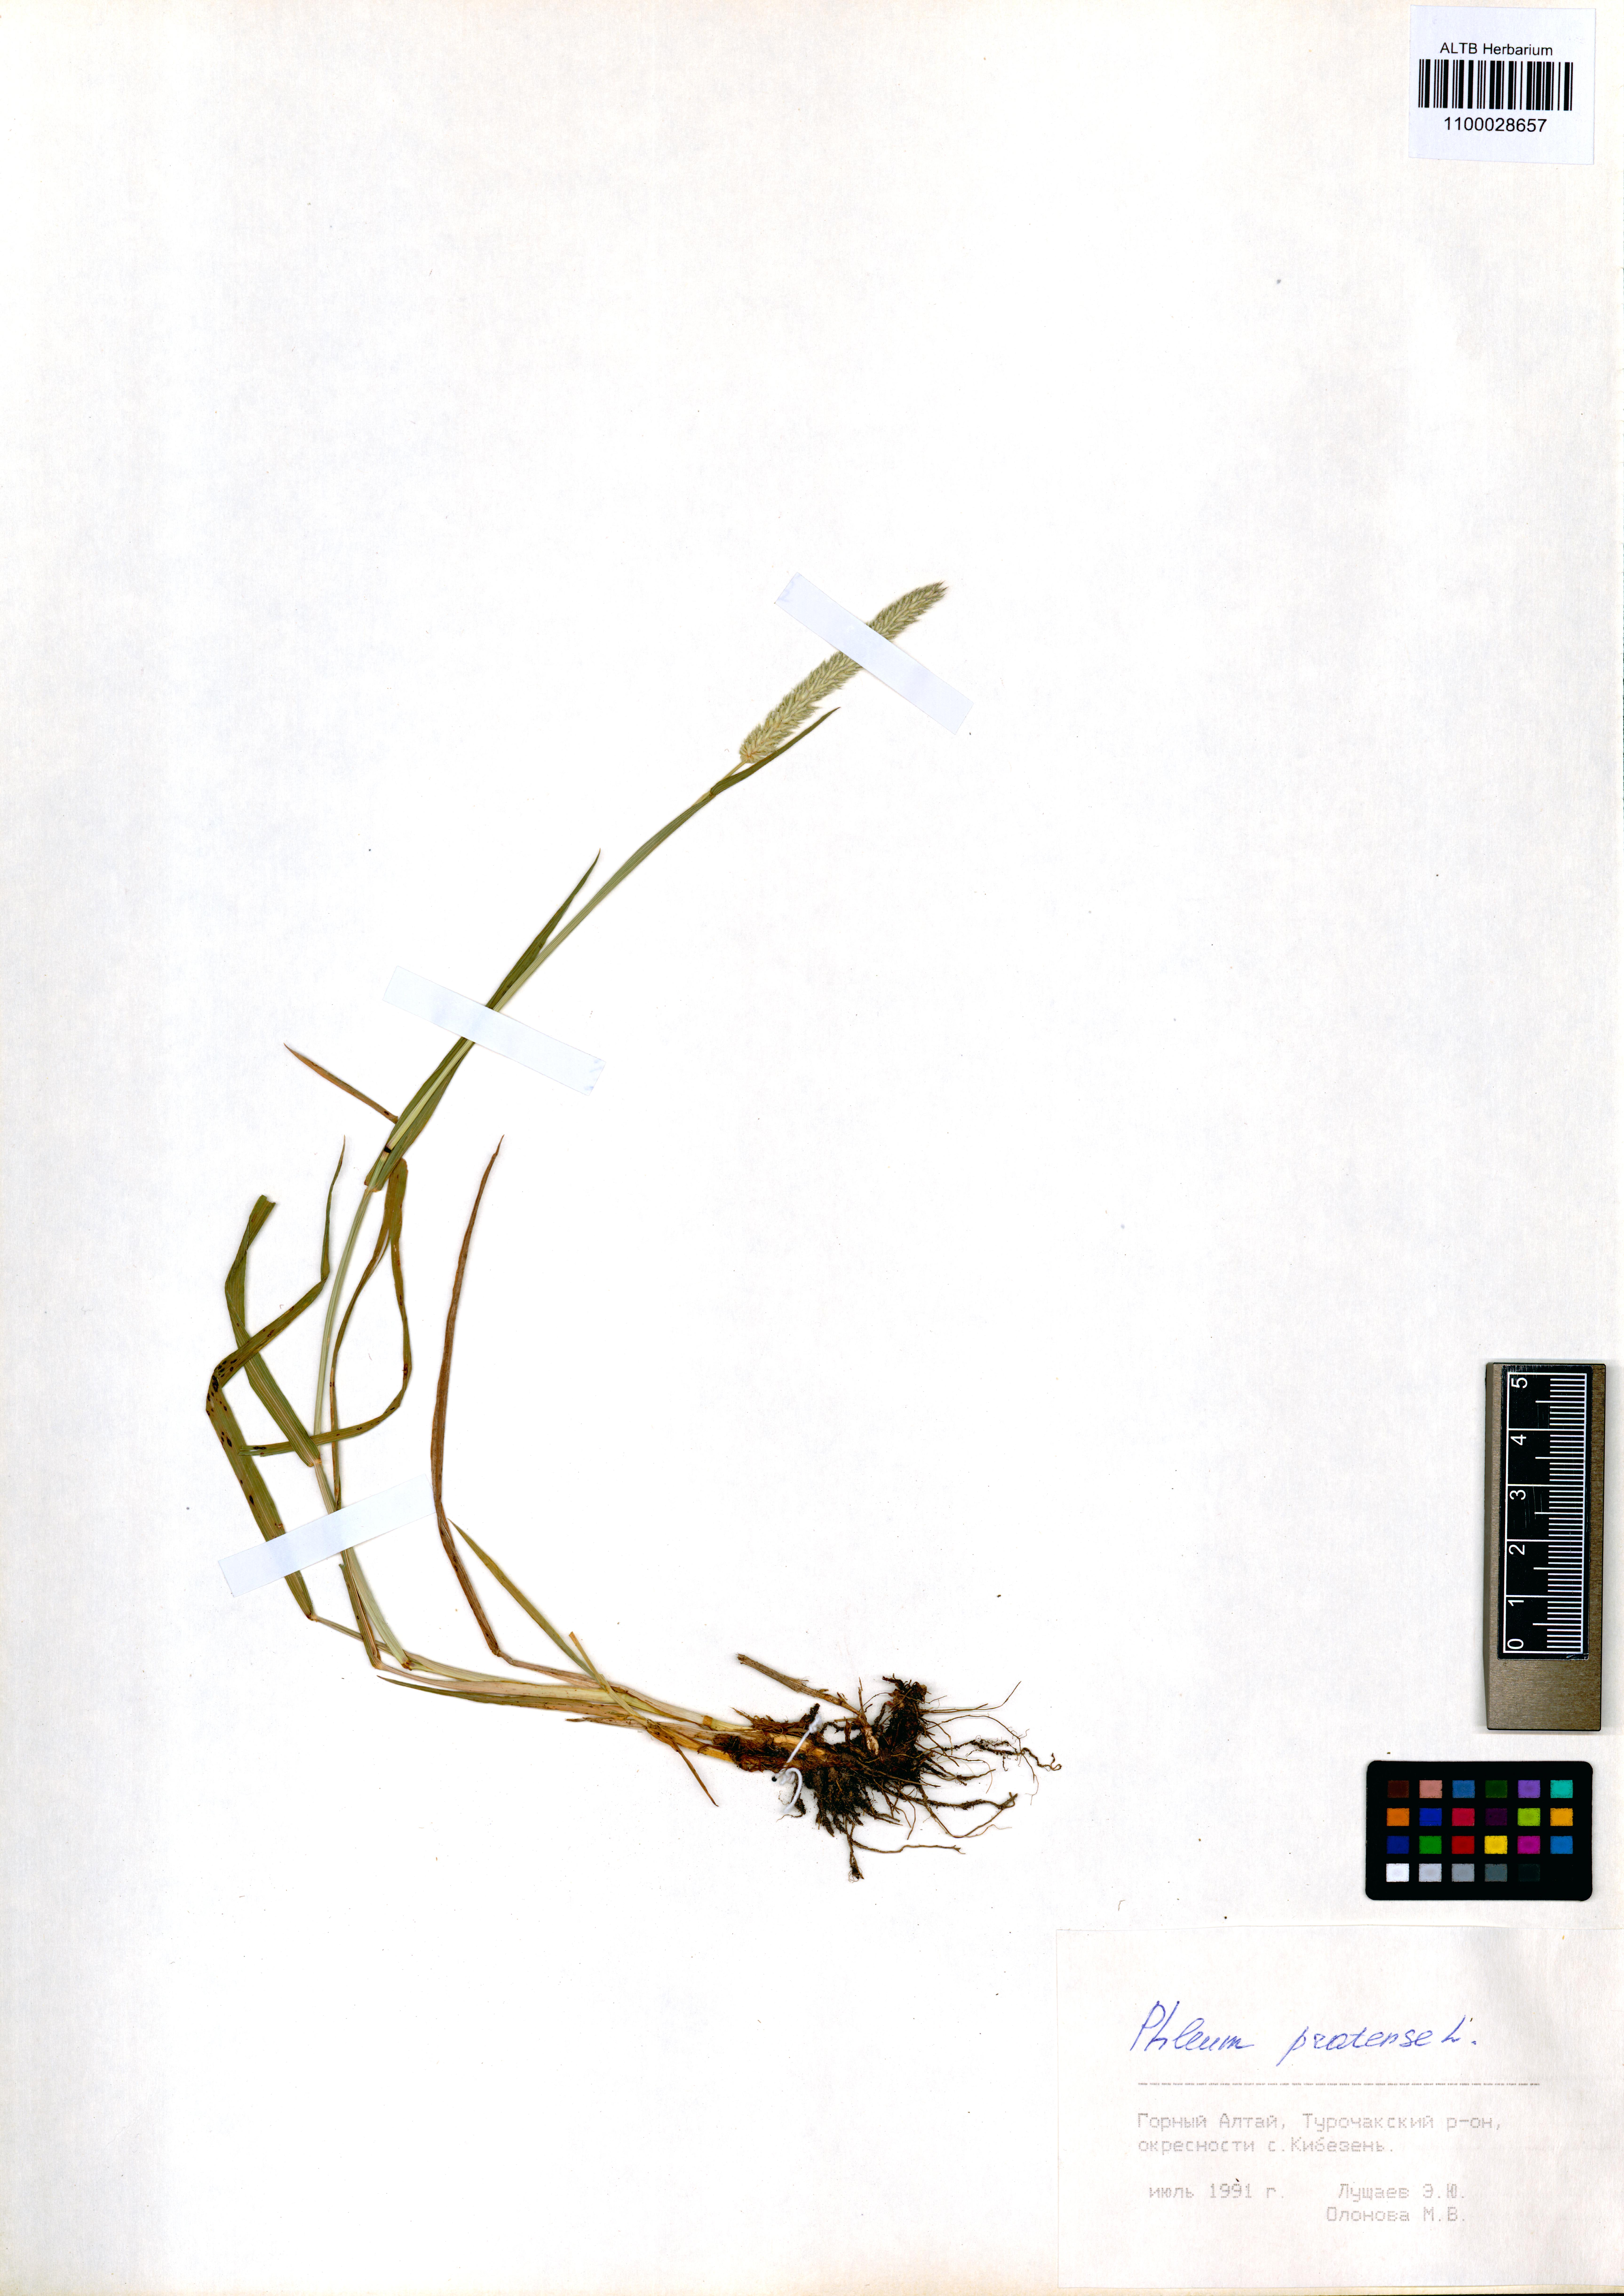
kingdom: Plantae
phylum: Tracheophyta
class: Liliopsida
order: Poales
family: Poaceae
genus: Phleum
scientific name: Phleum pratense
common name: Timothy grass
